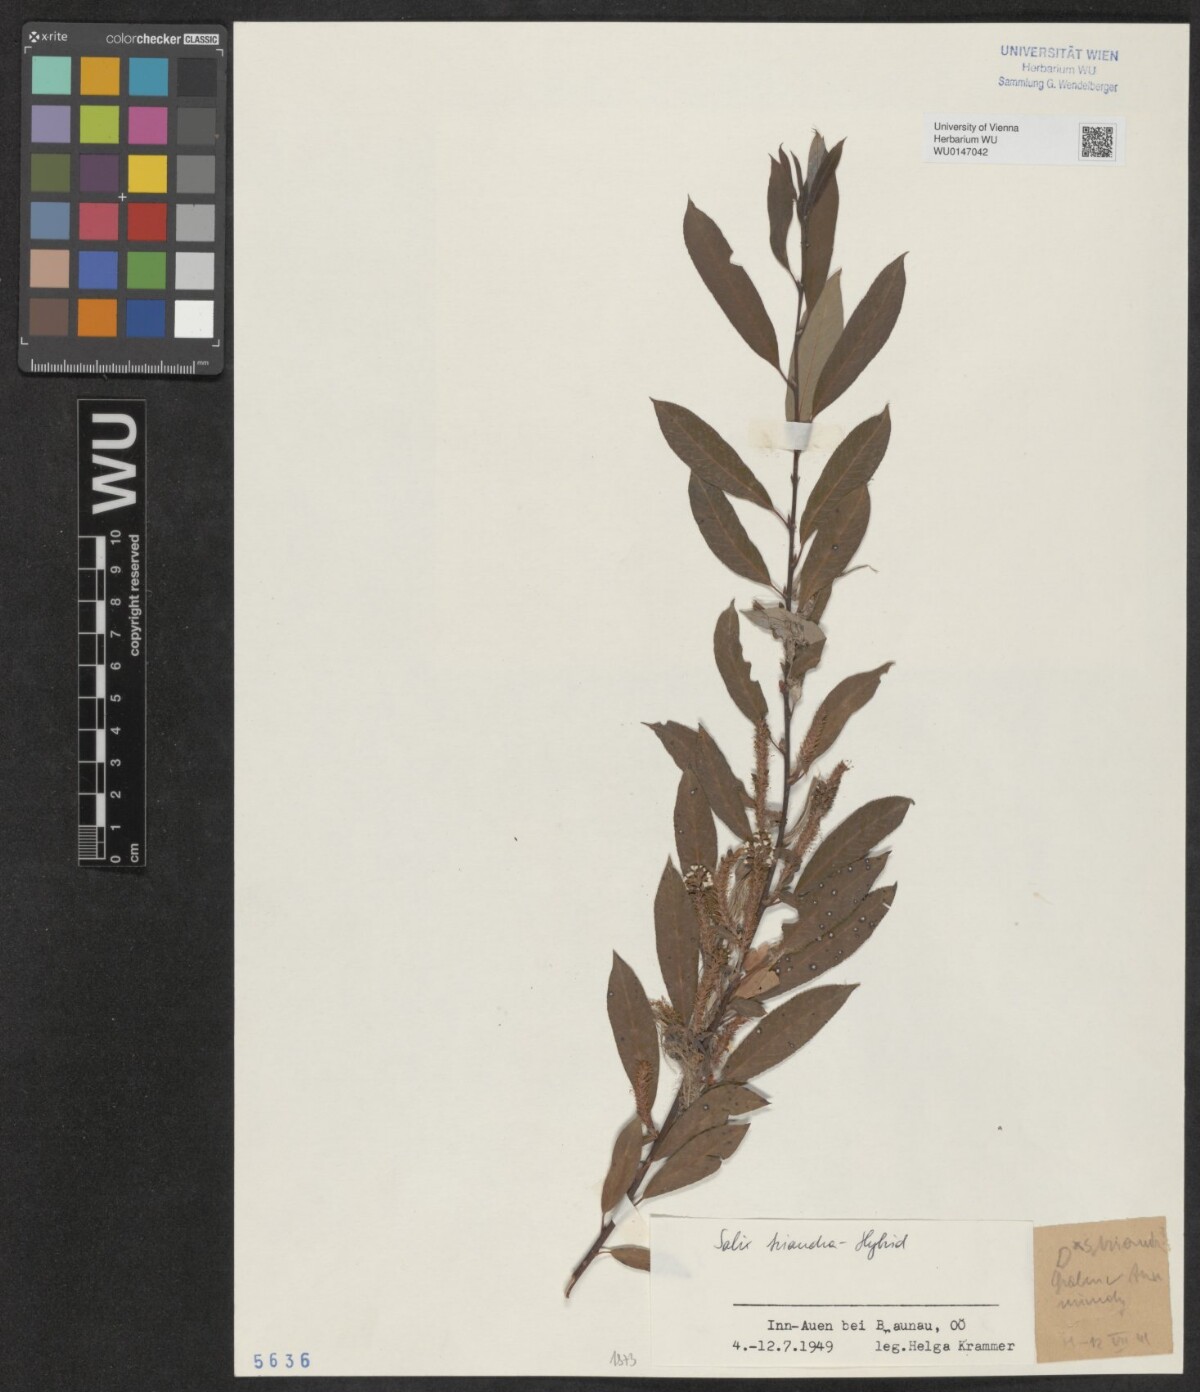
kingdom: Plantae
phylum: Tracheophyta
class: Magnoliopsida
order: Malpighiales
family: Salicaceae
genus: Salix
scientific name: Salix triandra
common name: Almond willow
